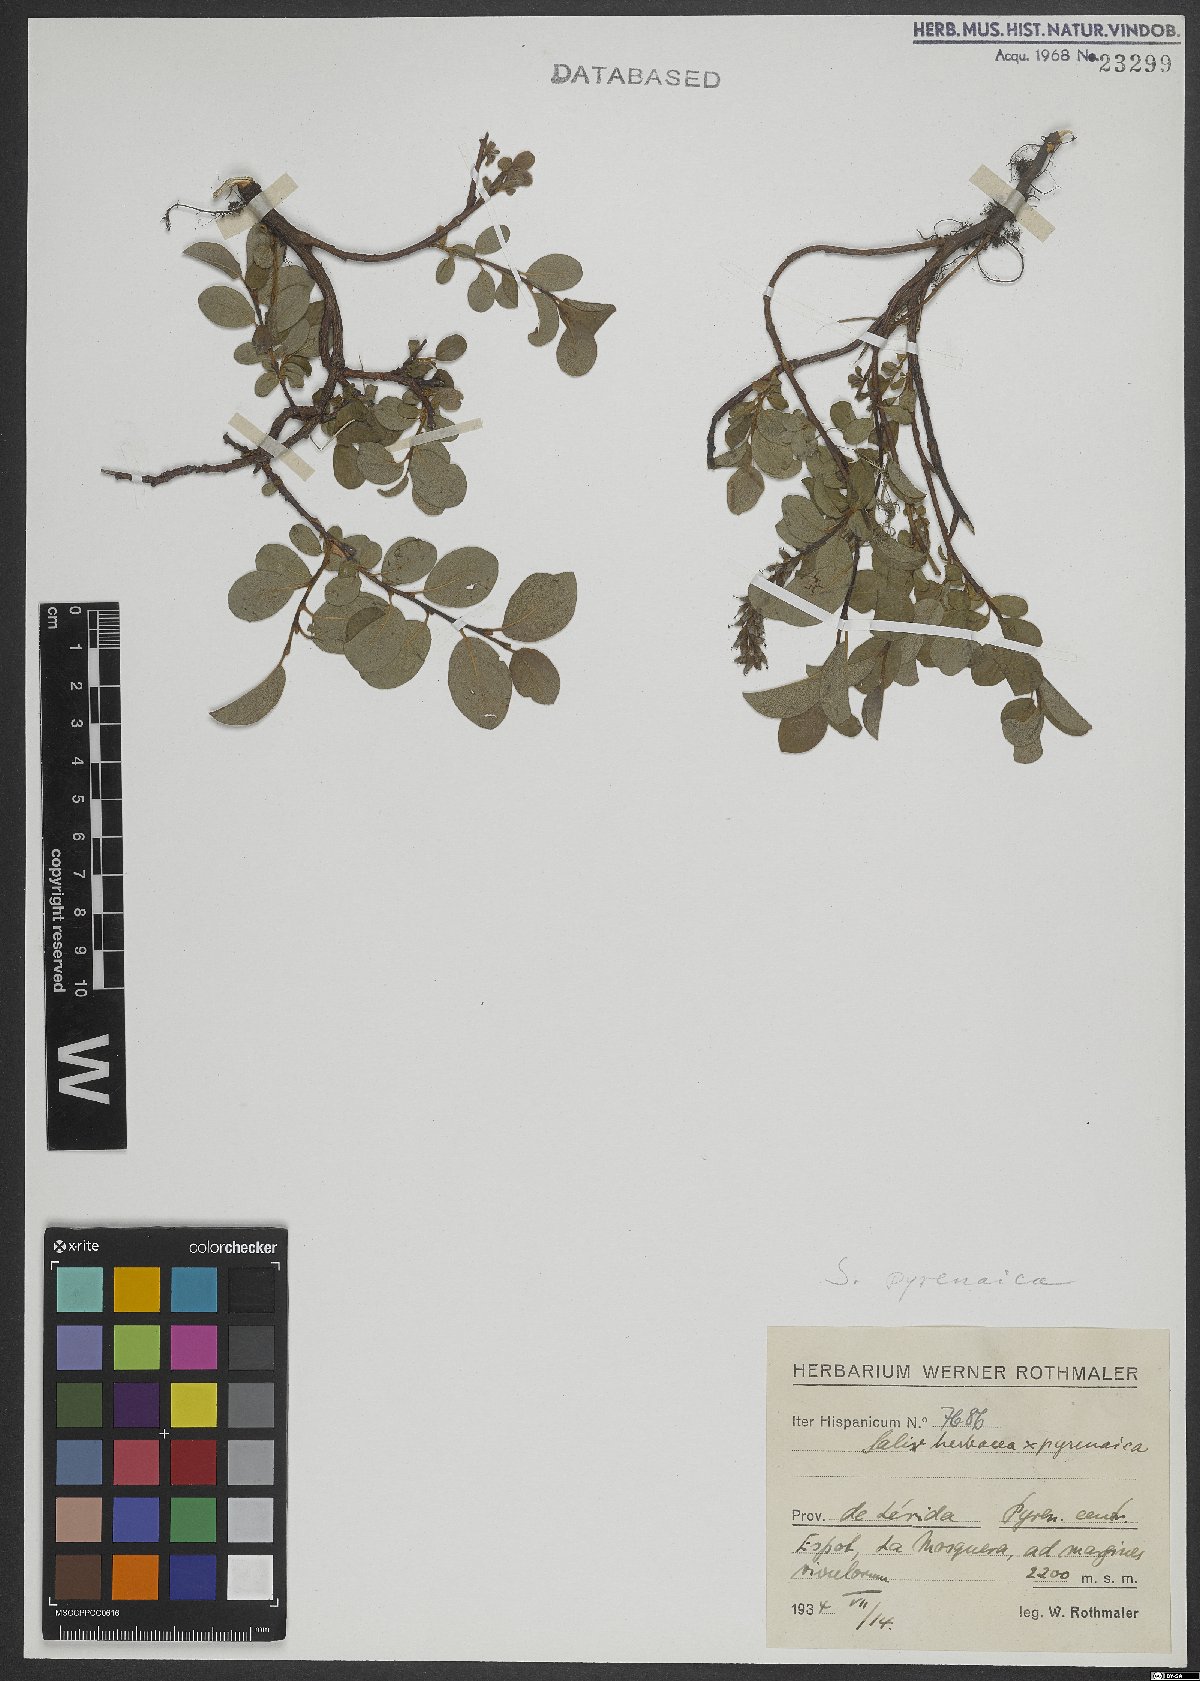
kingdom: Plantae
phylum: Tracheophyta
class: Magnoliopsida
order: Malpighiales
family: Salicaceae
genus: Salix
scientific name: Salix pyrenaica
